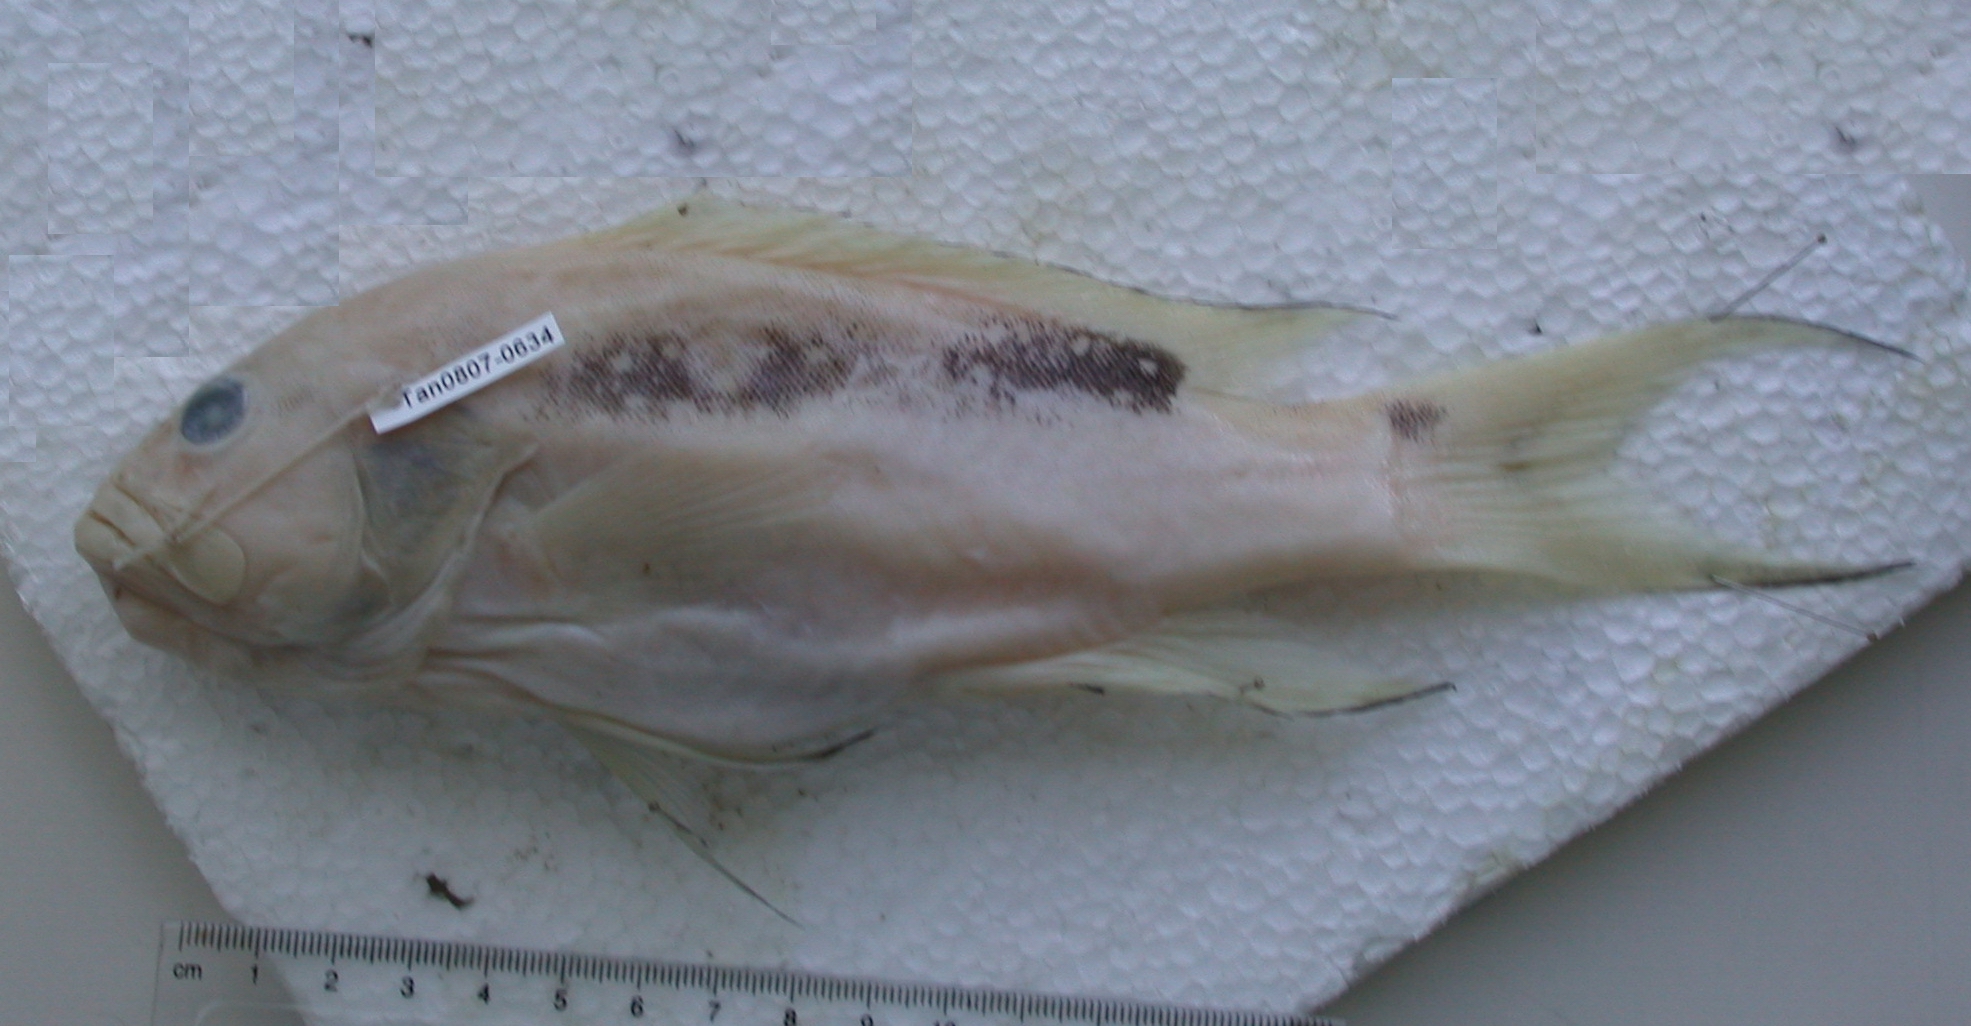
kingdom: Animalia
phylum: Chordata
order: Perciformes
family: Serranidae
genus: Variola
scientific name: Variola louti
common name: Yellow-edged lyretail
